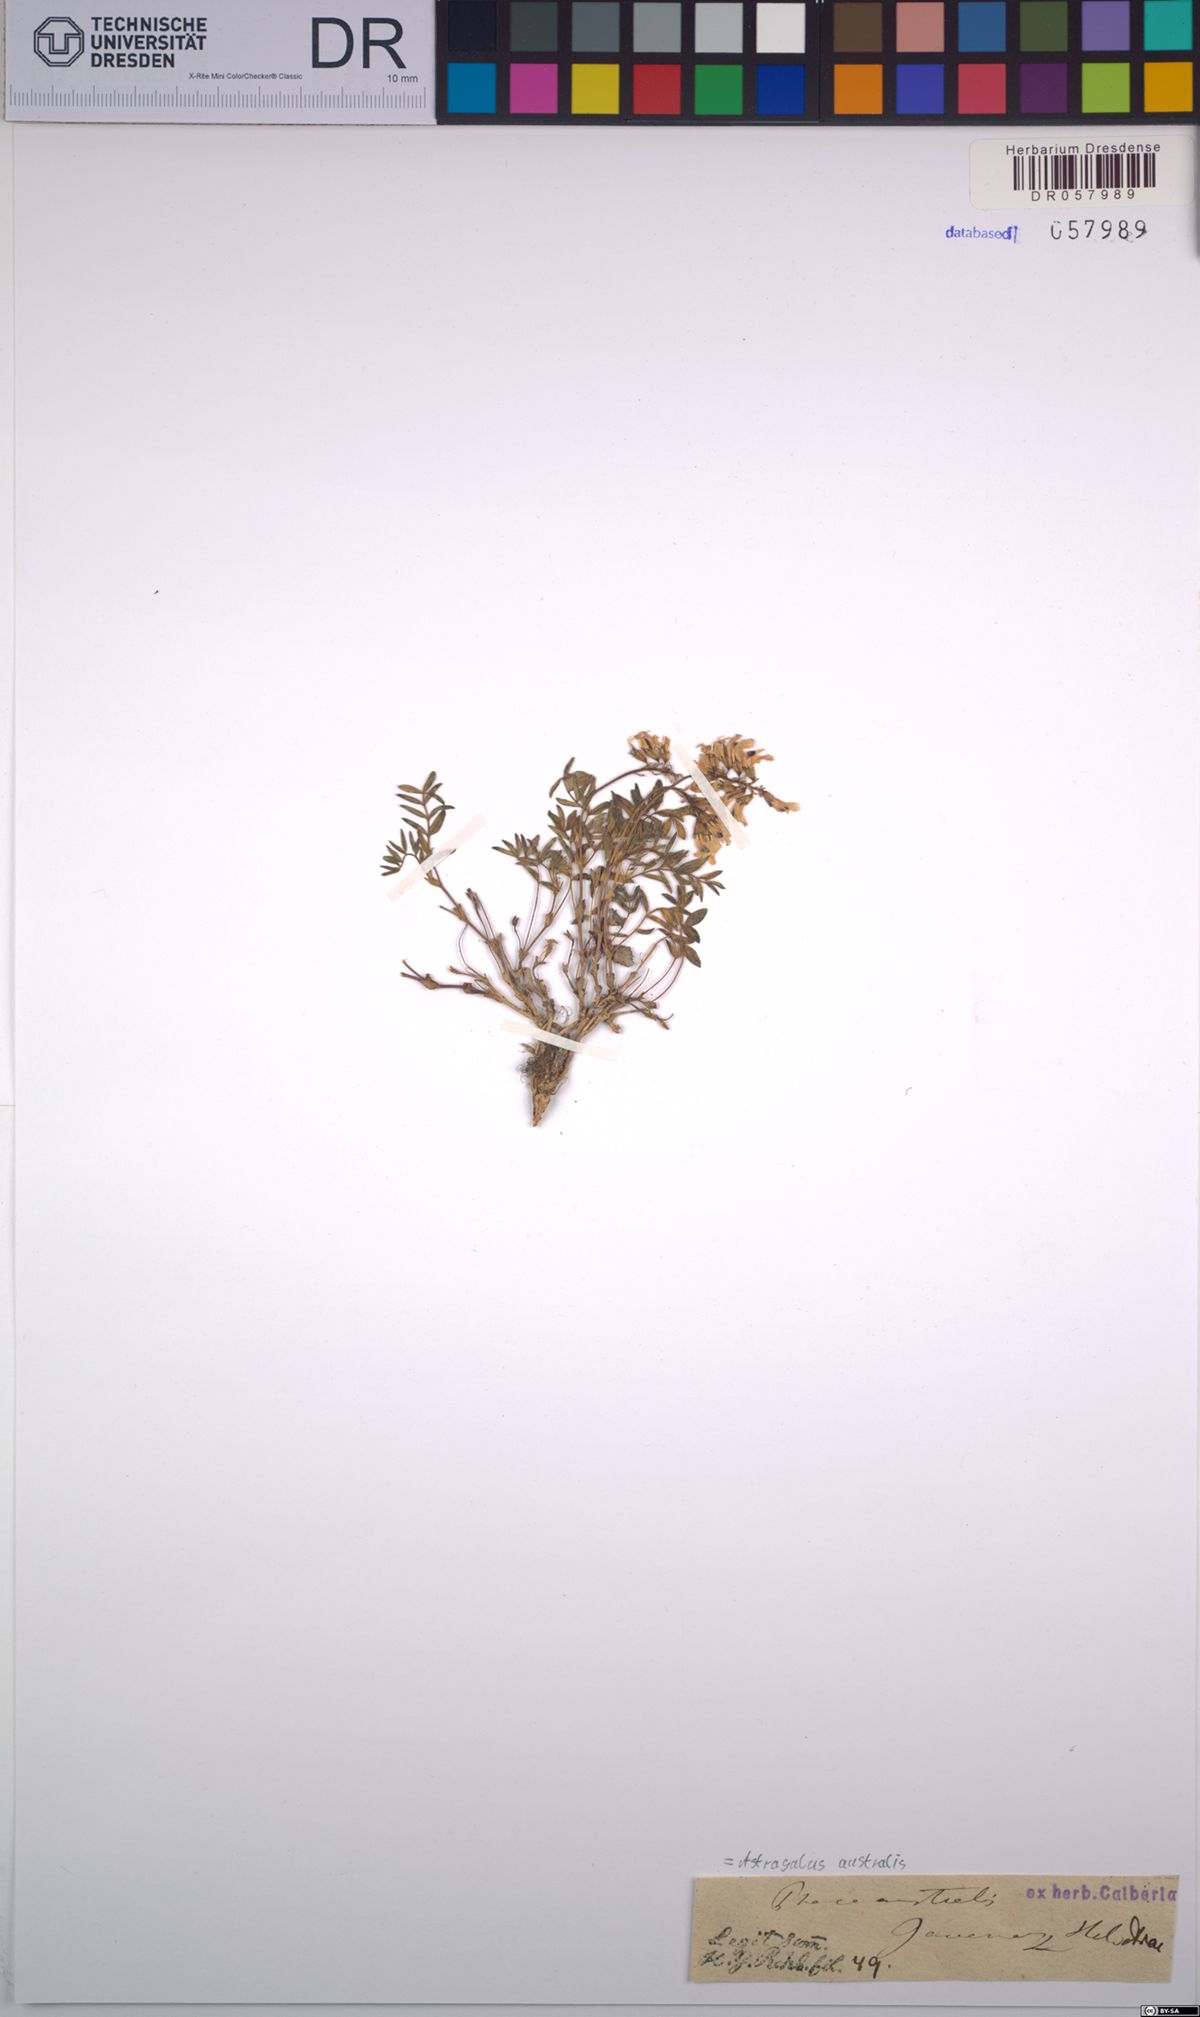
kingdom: Plantae
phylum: Tracheophyta
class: Magnoliopsida
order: Fabales
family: Fabaceae
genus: Astragalus
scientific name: Astragalus australis
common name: Indian milk-vetch
